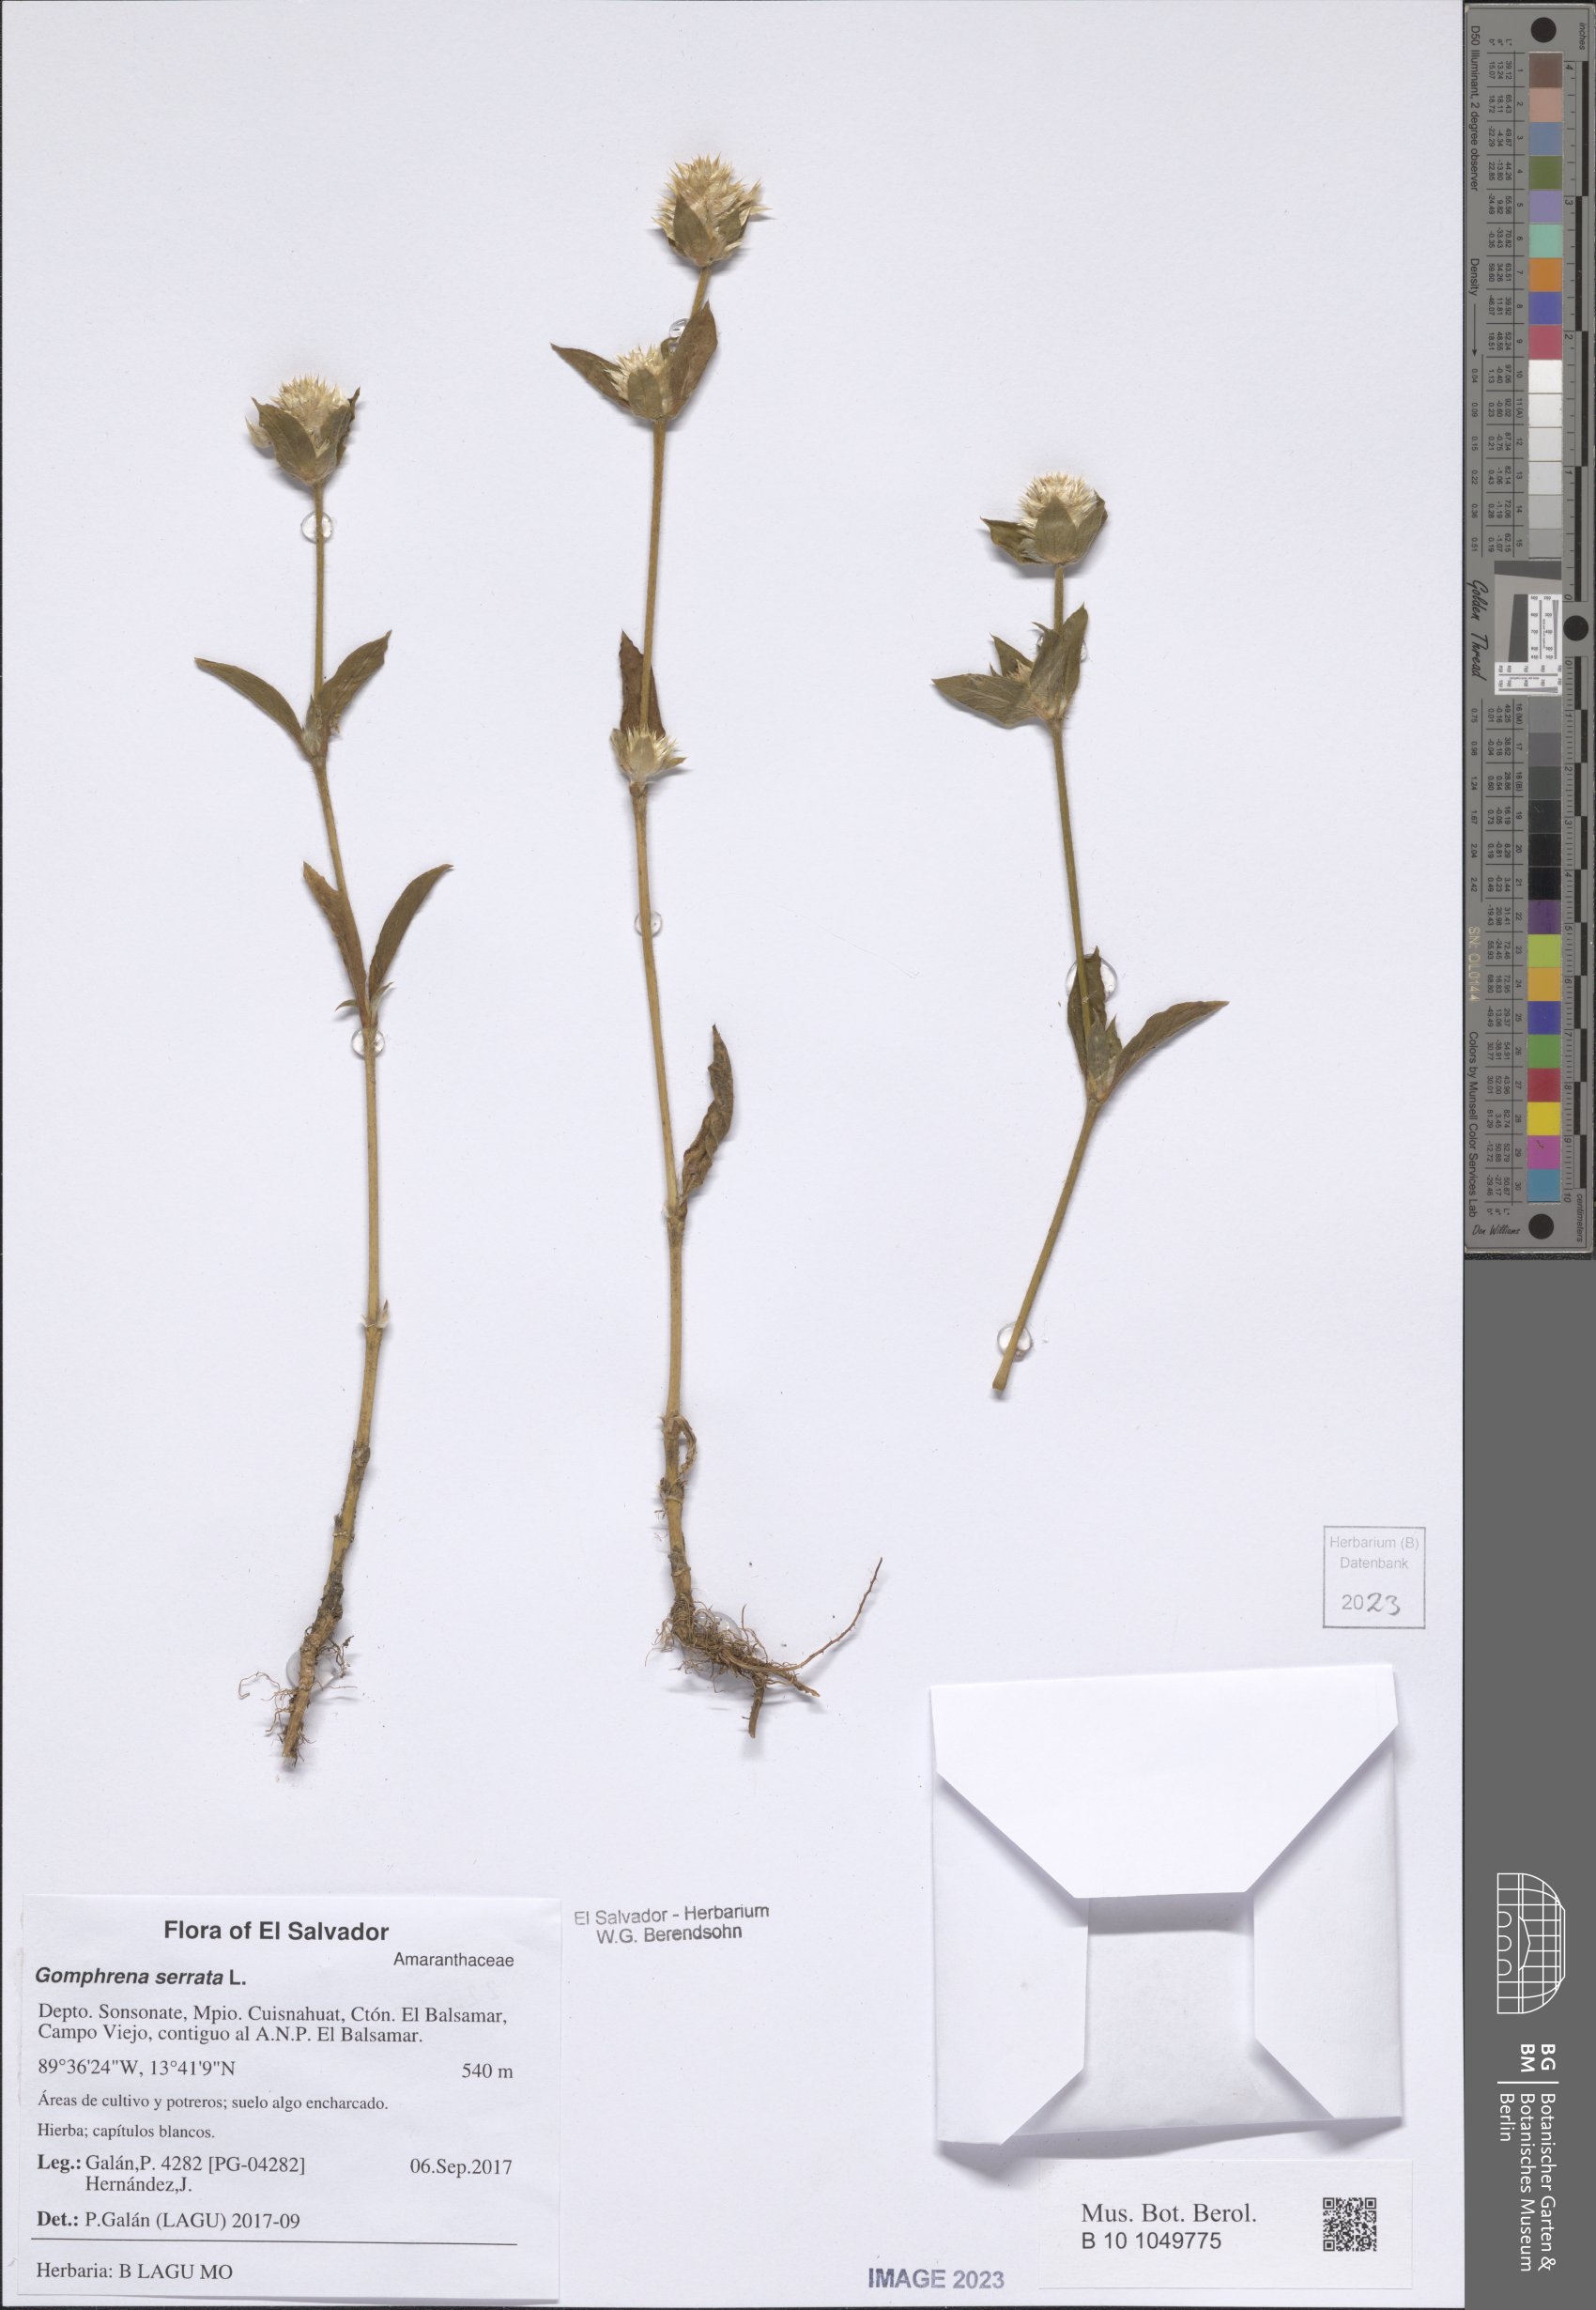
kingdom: Plantae
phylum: Tracheophyta
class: Magnoliopsida
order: Caryophyllales
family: Amaranthaceae
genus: Gomphrena
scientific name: Gomphrena serrata
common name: Arrasa con todo
